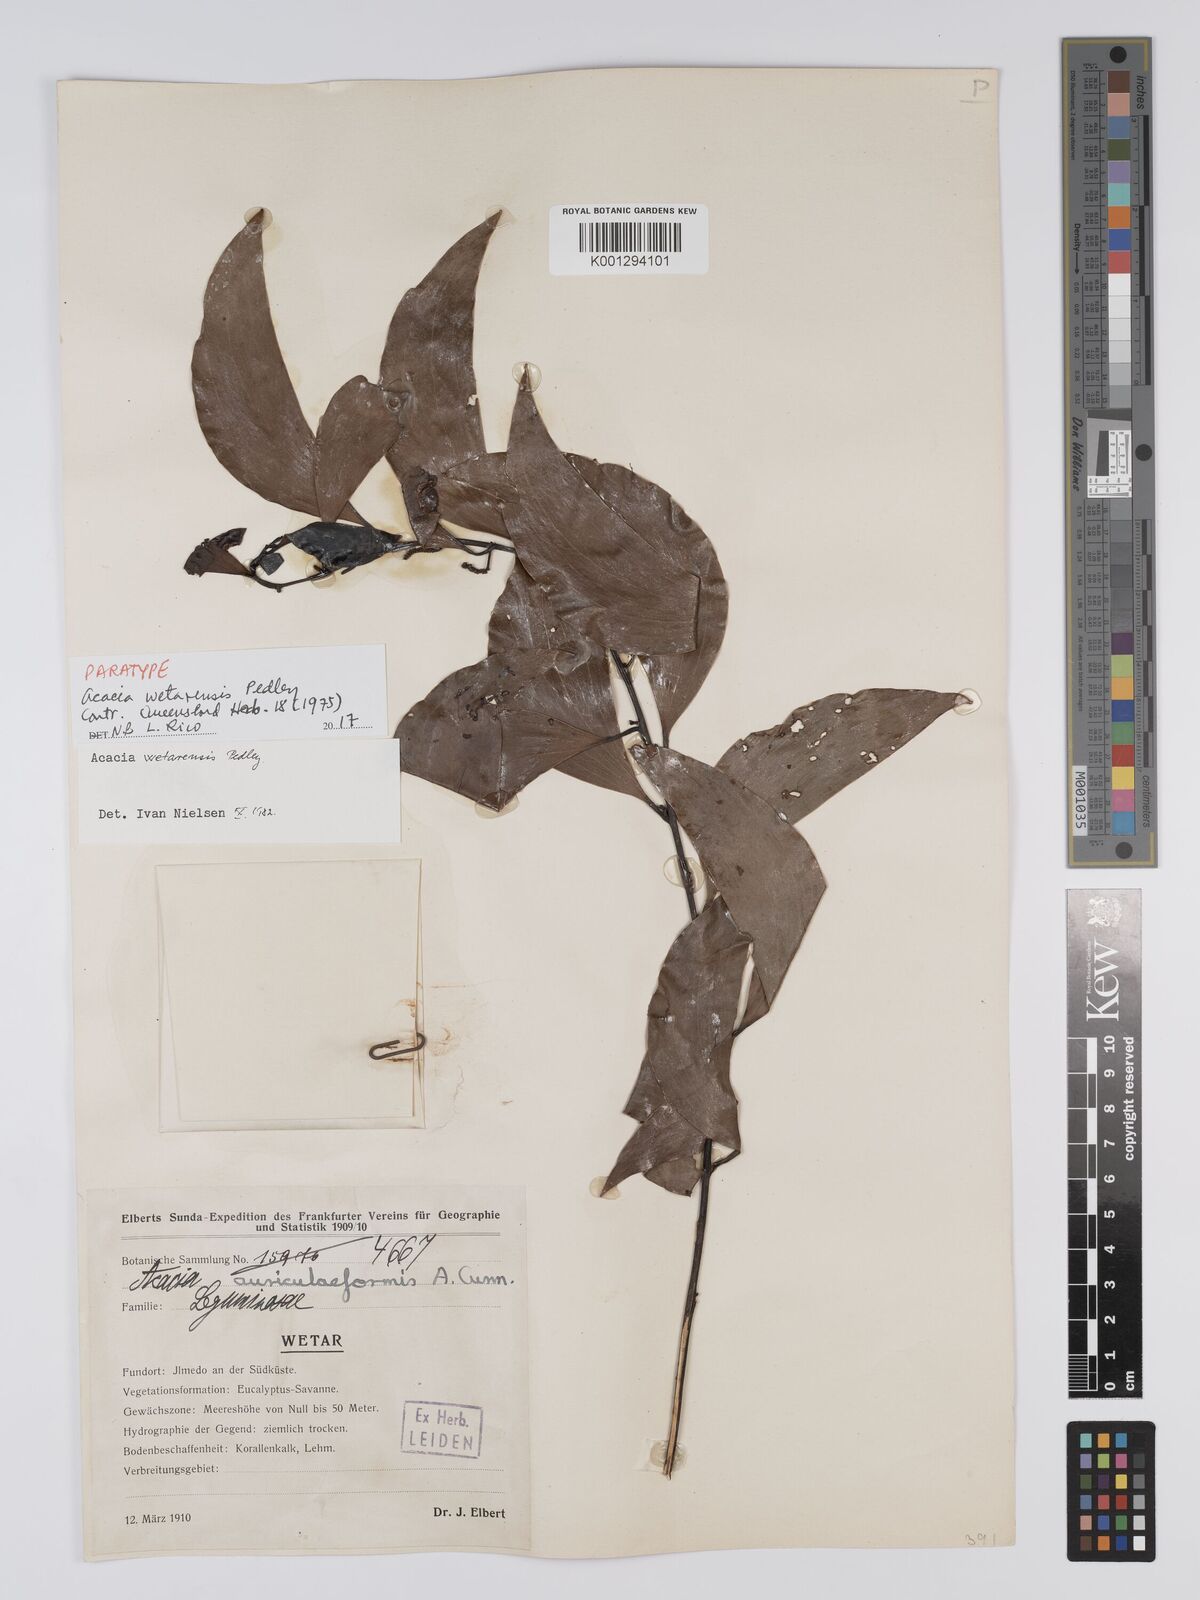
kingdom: Plantae
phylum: Tracheophyta
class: Magnoliopsida
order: Fabales
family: Fabaceae
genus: Acacia
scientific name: Acacia wetarensis
